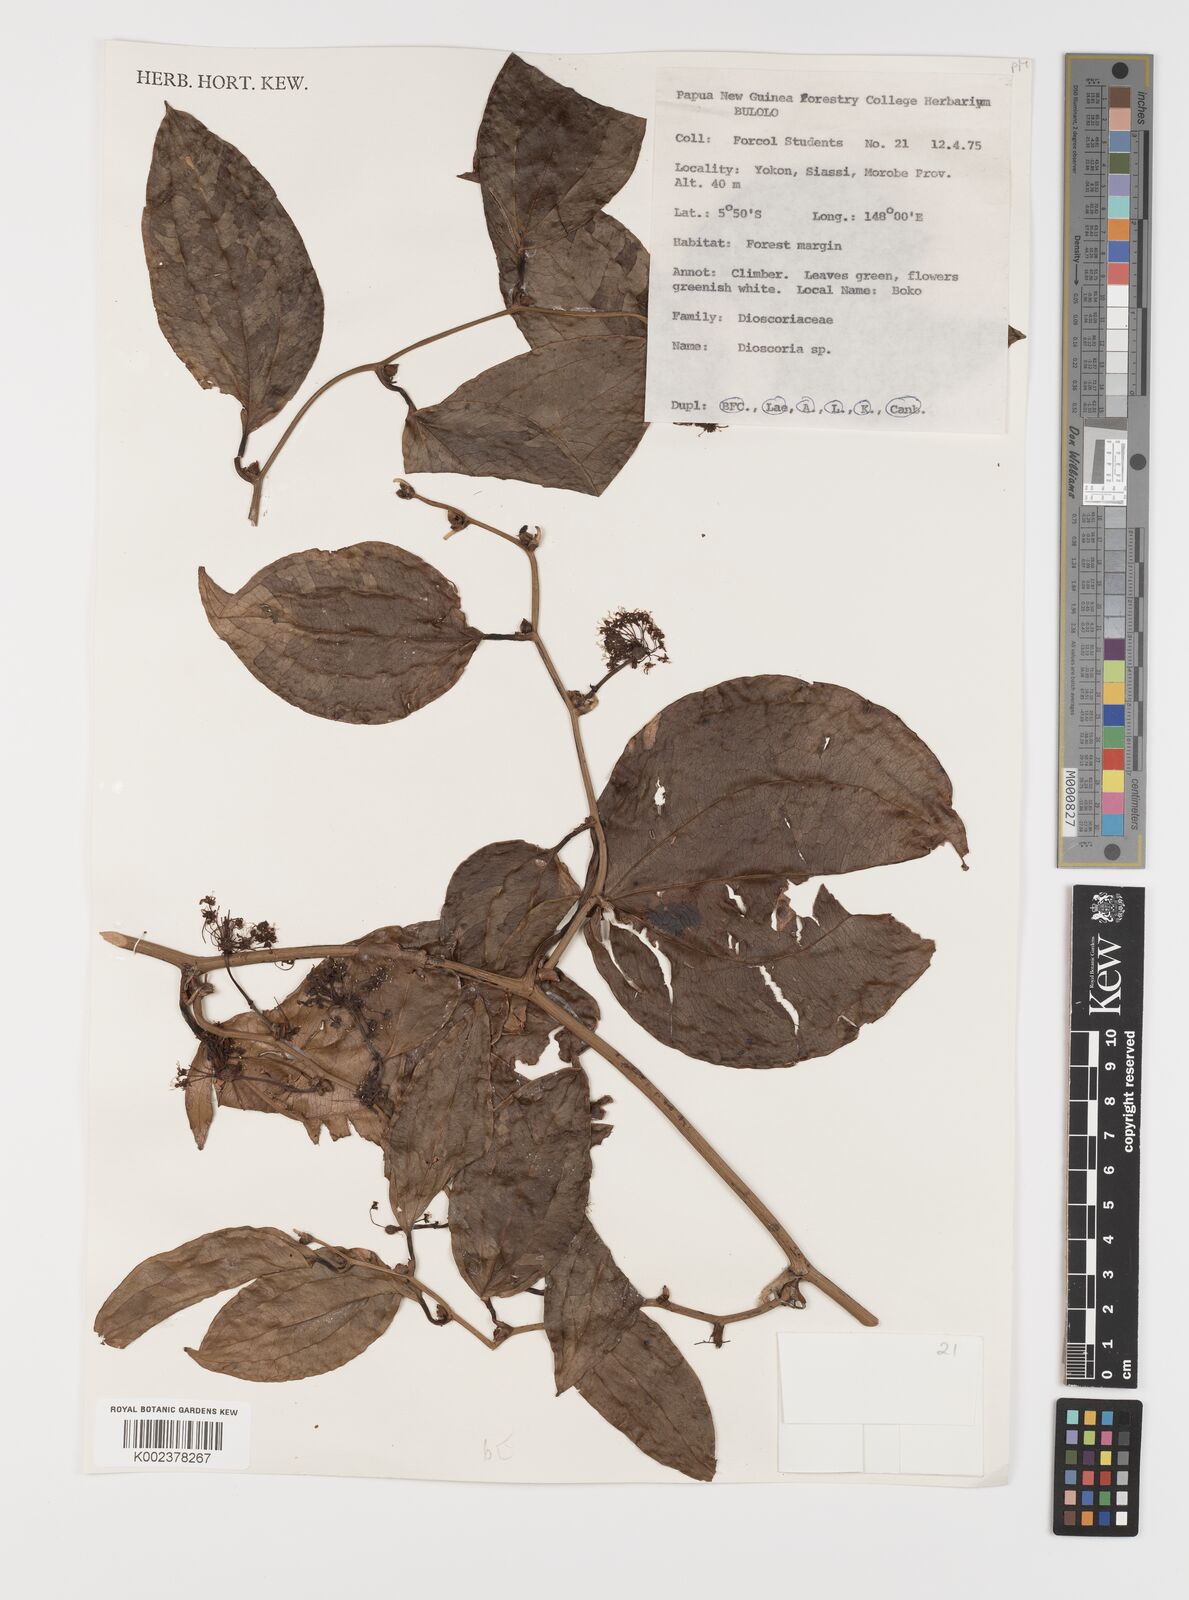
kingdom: Plantae
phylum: Tracheophyta
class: Liliopsida
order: Liliales
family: Smilacaceae
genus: Smilax
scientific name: Smilax
